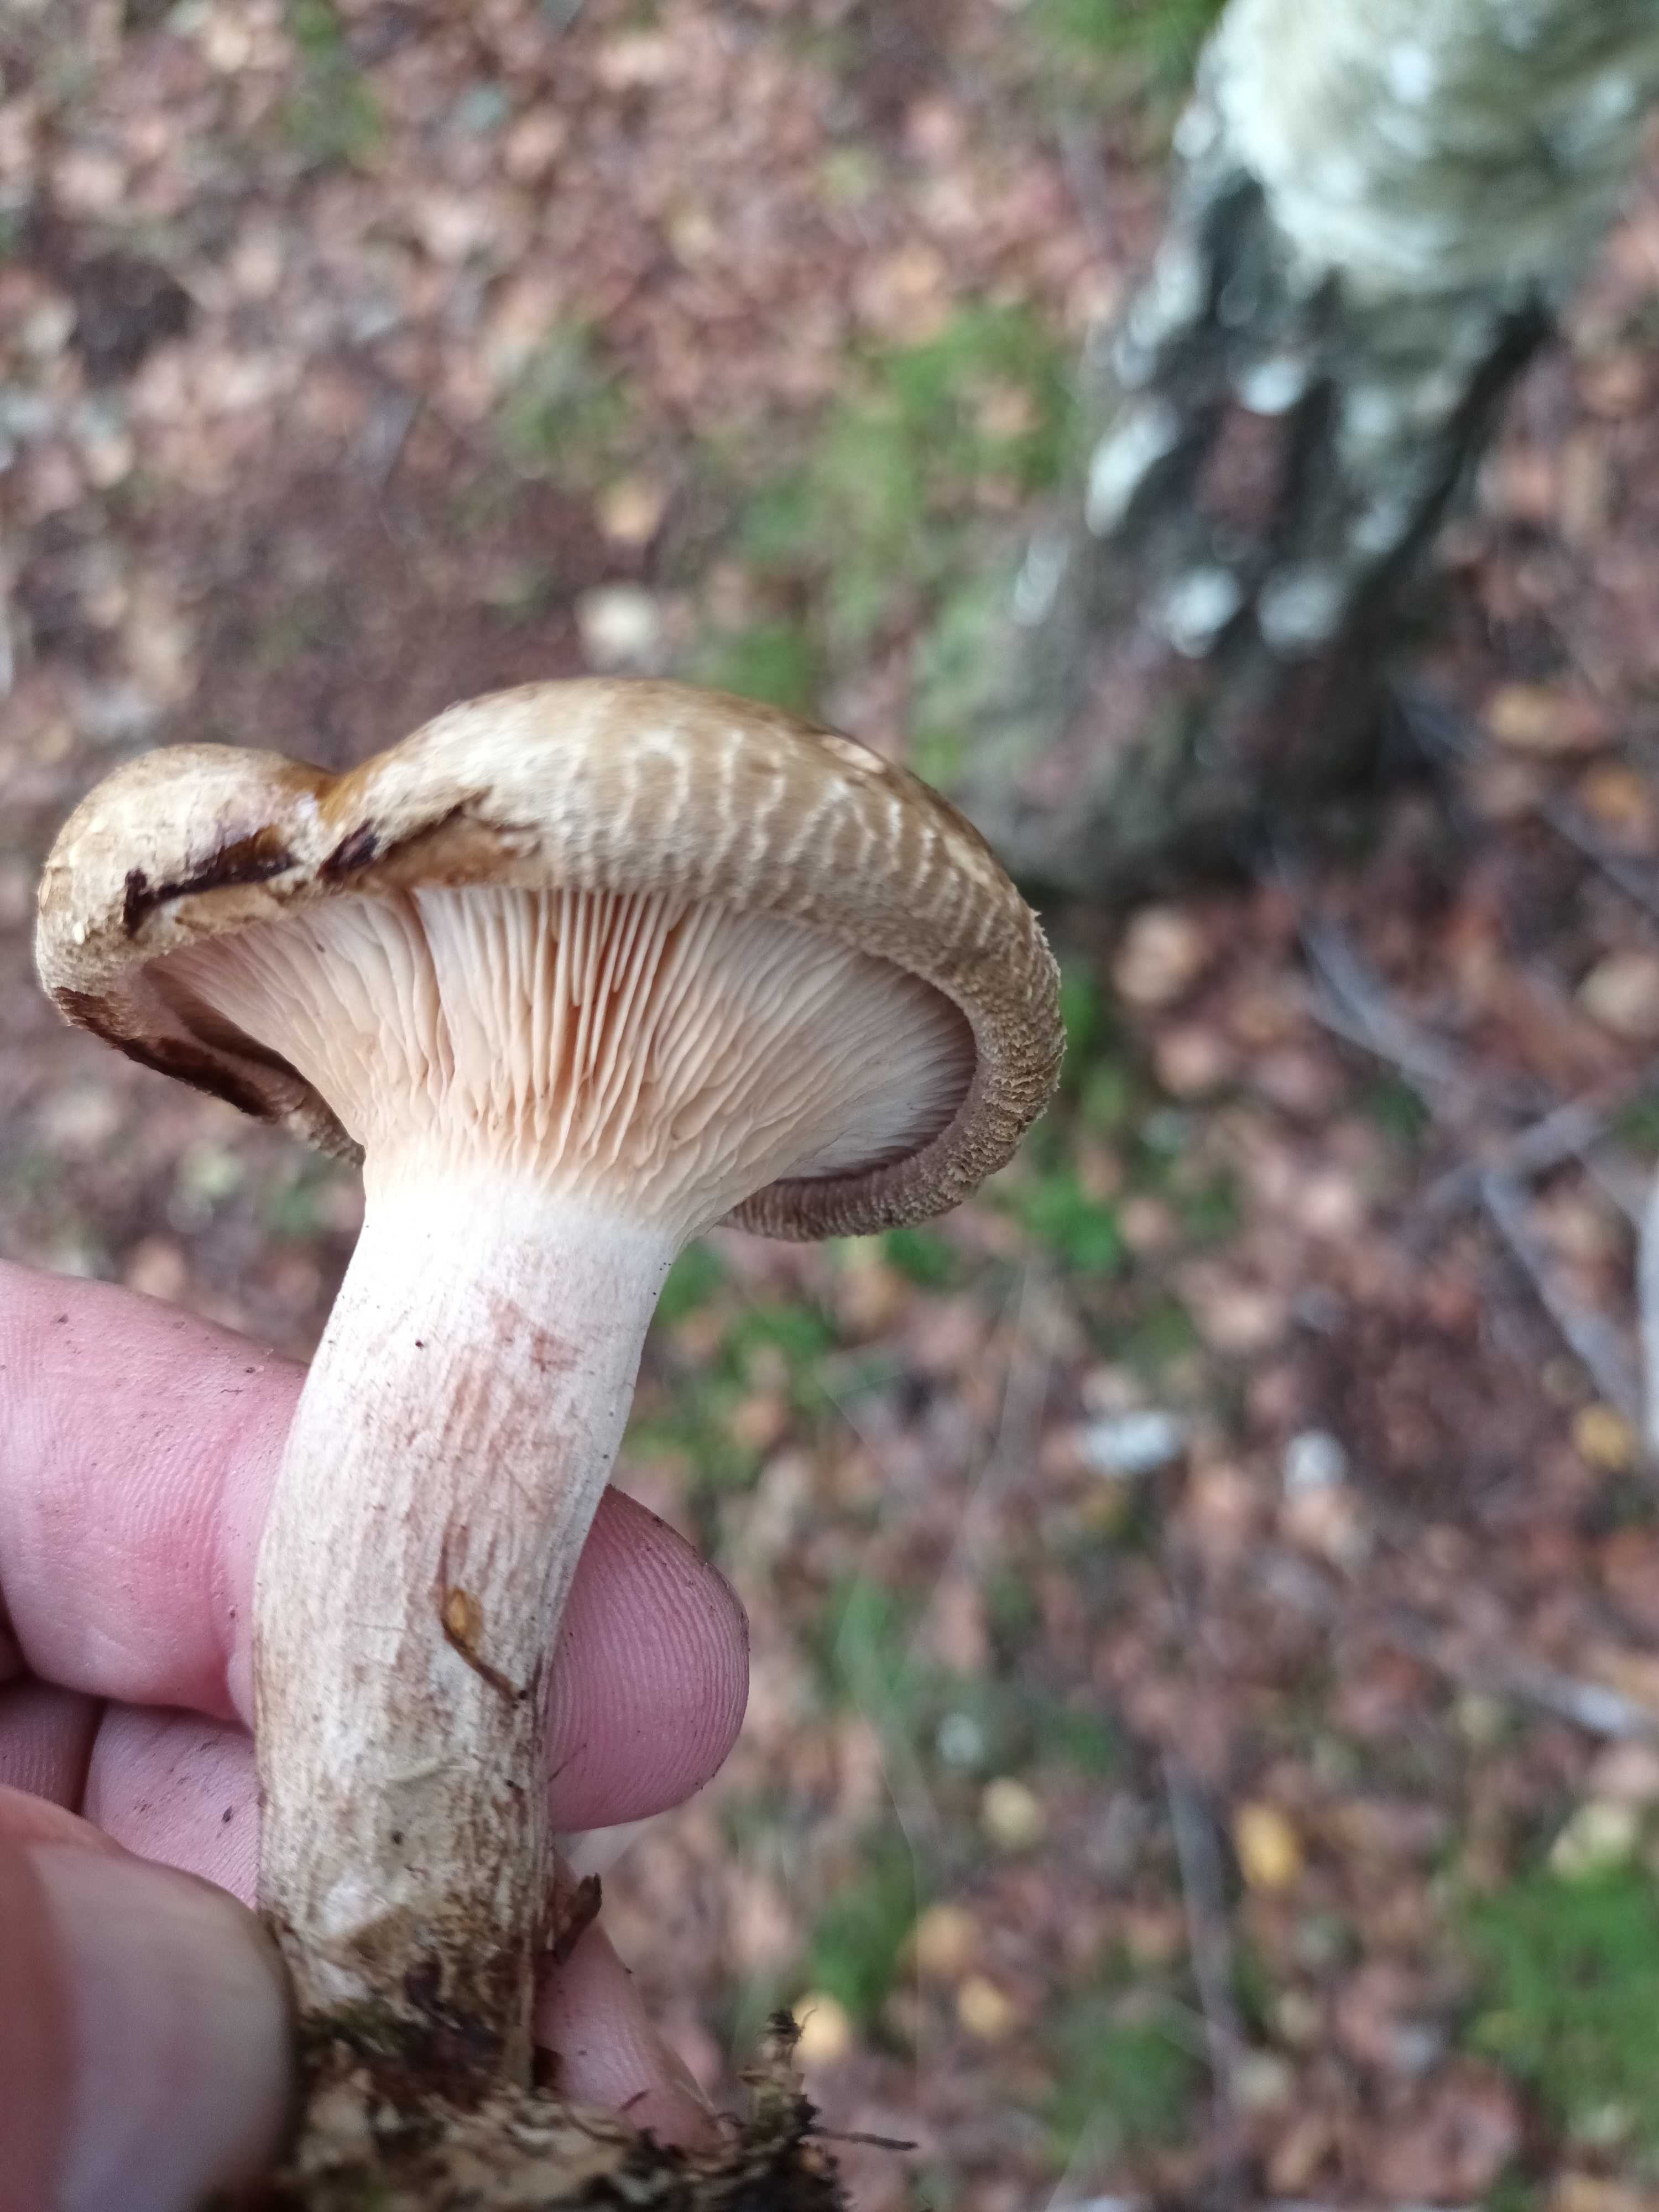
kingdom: Fungi
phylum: Basidiomycota
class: Agaricomycetes
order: Boletales
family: Paxillaceae
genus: Paxillus
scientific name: Paxillus involutus
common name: almindelig netbladhat
